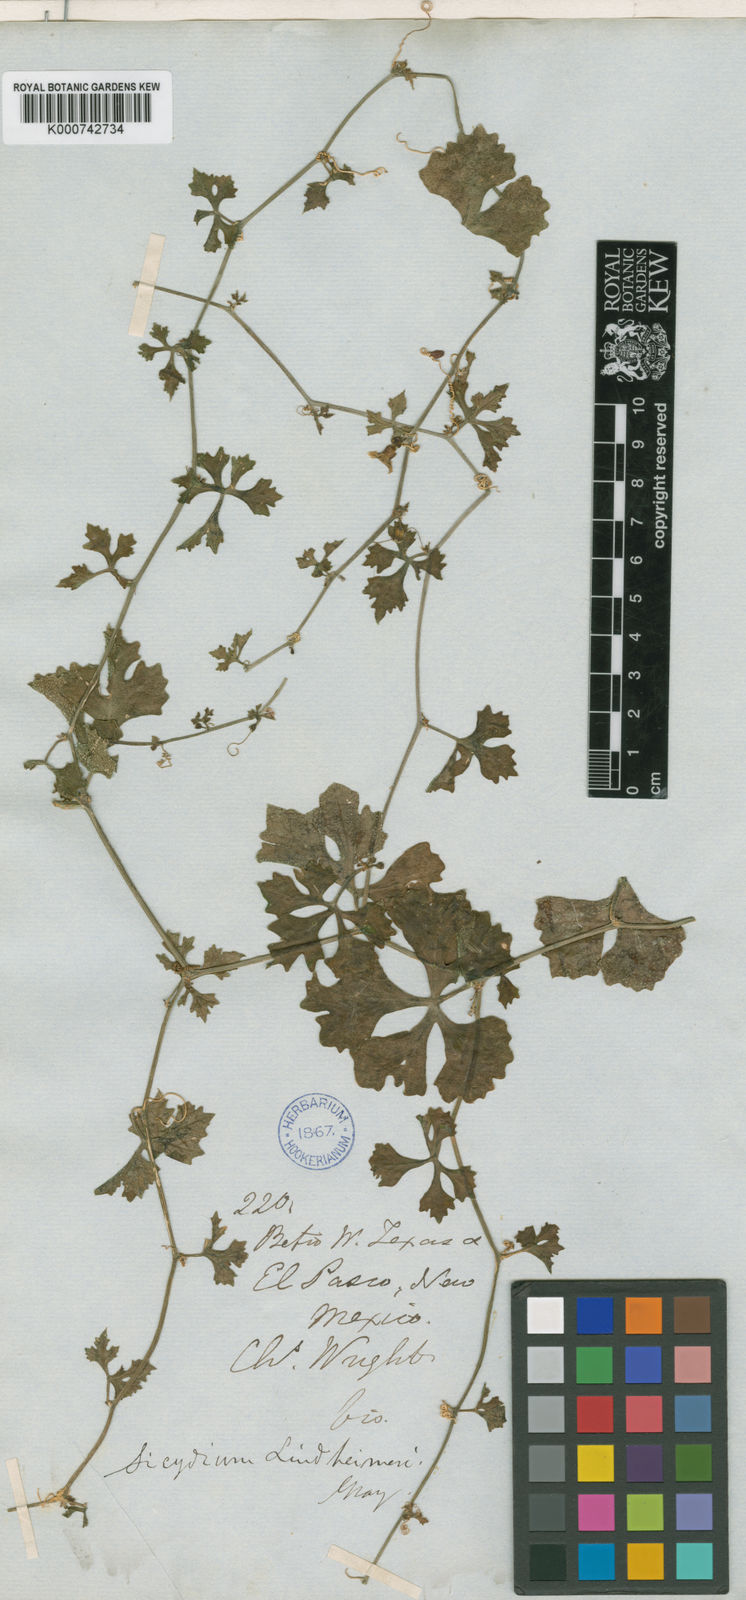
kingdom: Plantae
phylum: Tracheophyta
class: Magnoliopsida
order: Cucurbitales
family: Cucurbitaceae
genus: Ibervillea
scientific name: Ibervillea lindheimeri
